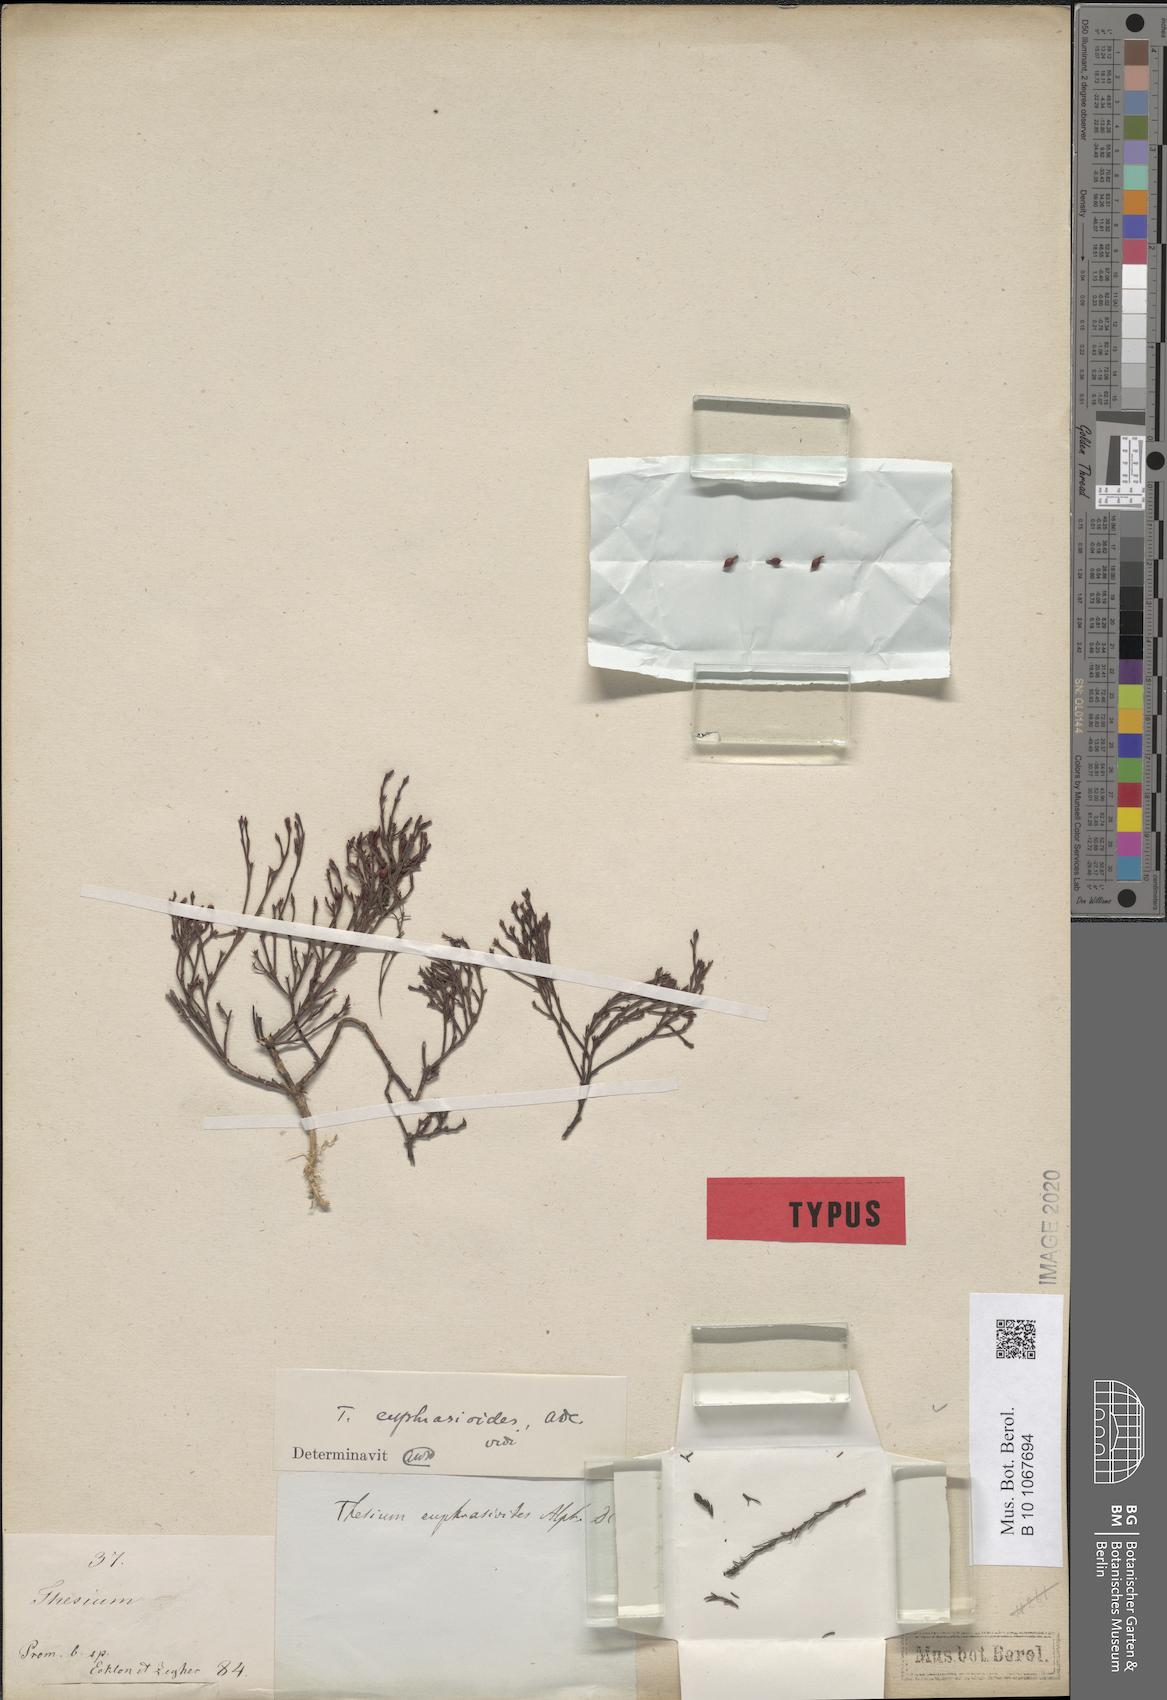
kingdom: Plantae
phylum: Tracheophyta
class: Magnoliopsida
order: Santalales
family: Thesiaceae
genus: Thesium
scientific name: Thesium euphrasioides
